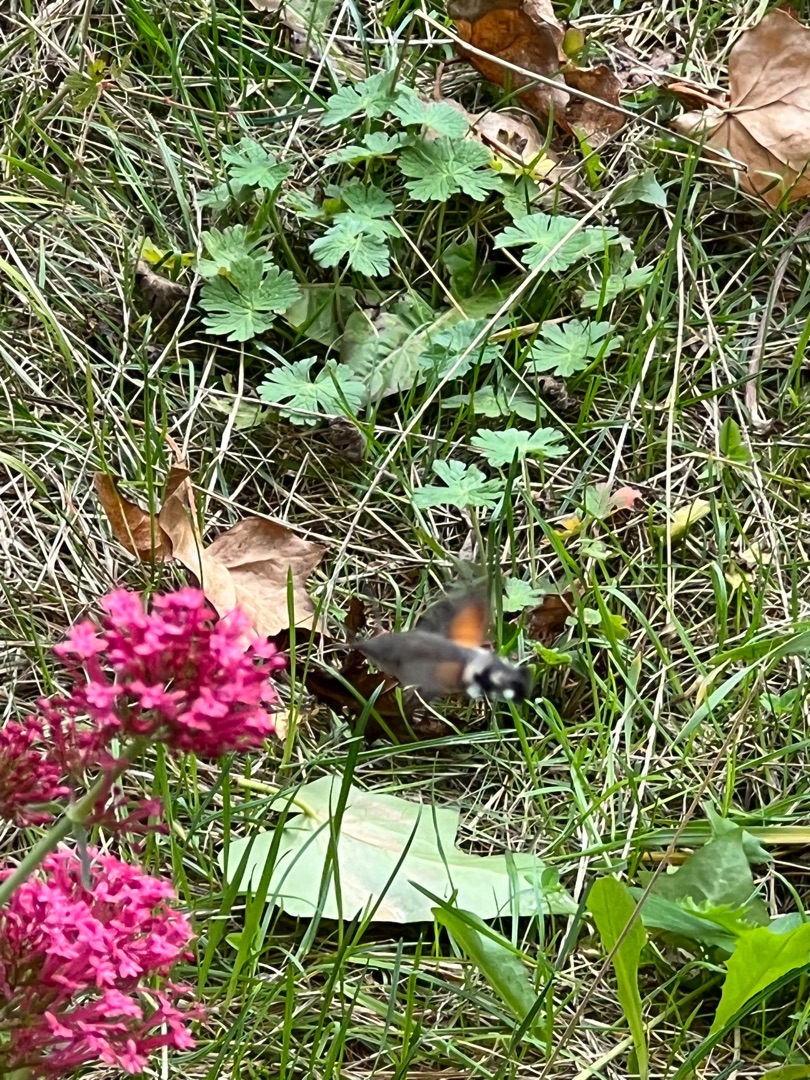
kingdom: Animalia
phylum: Arthropoda
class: Insecta
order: Lepidoptera
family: Sphingidae
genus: Macroglossum
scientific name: Macroglossum stellatarum
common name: Duehale
